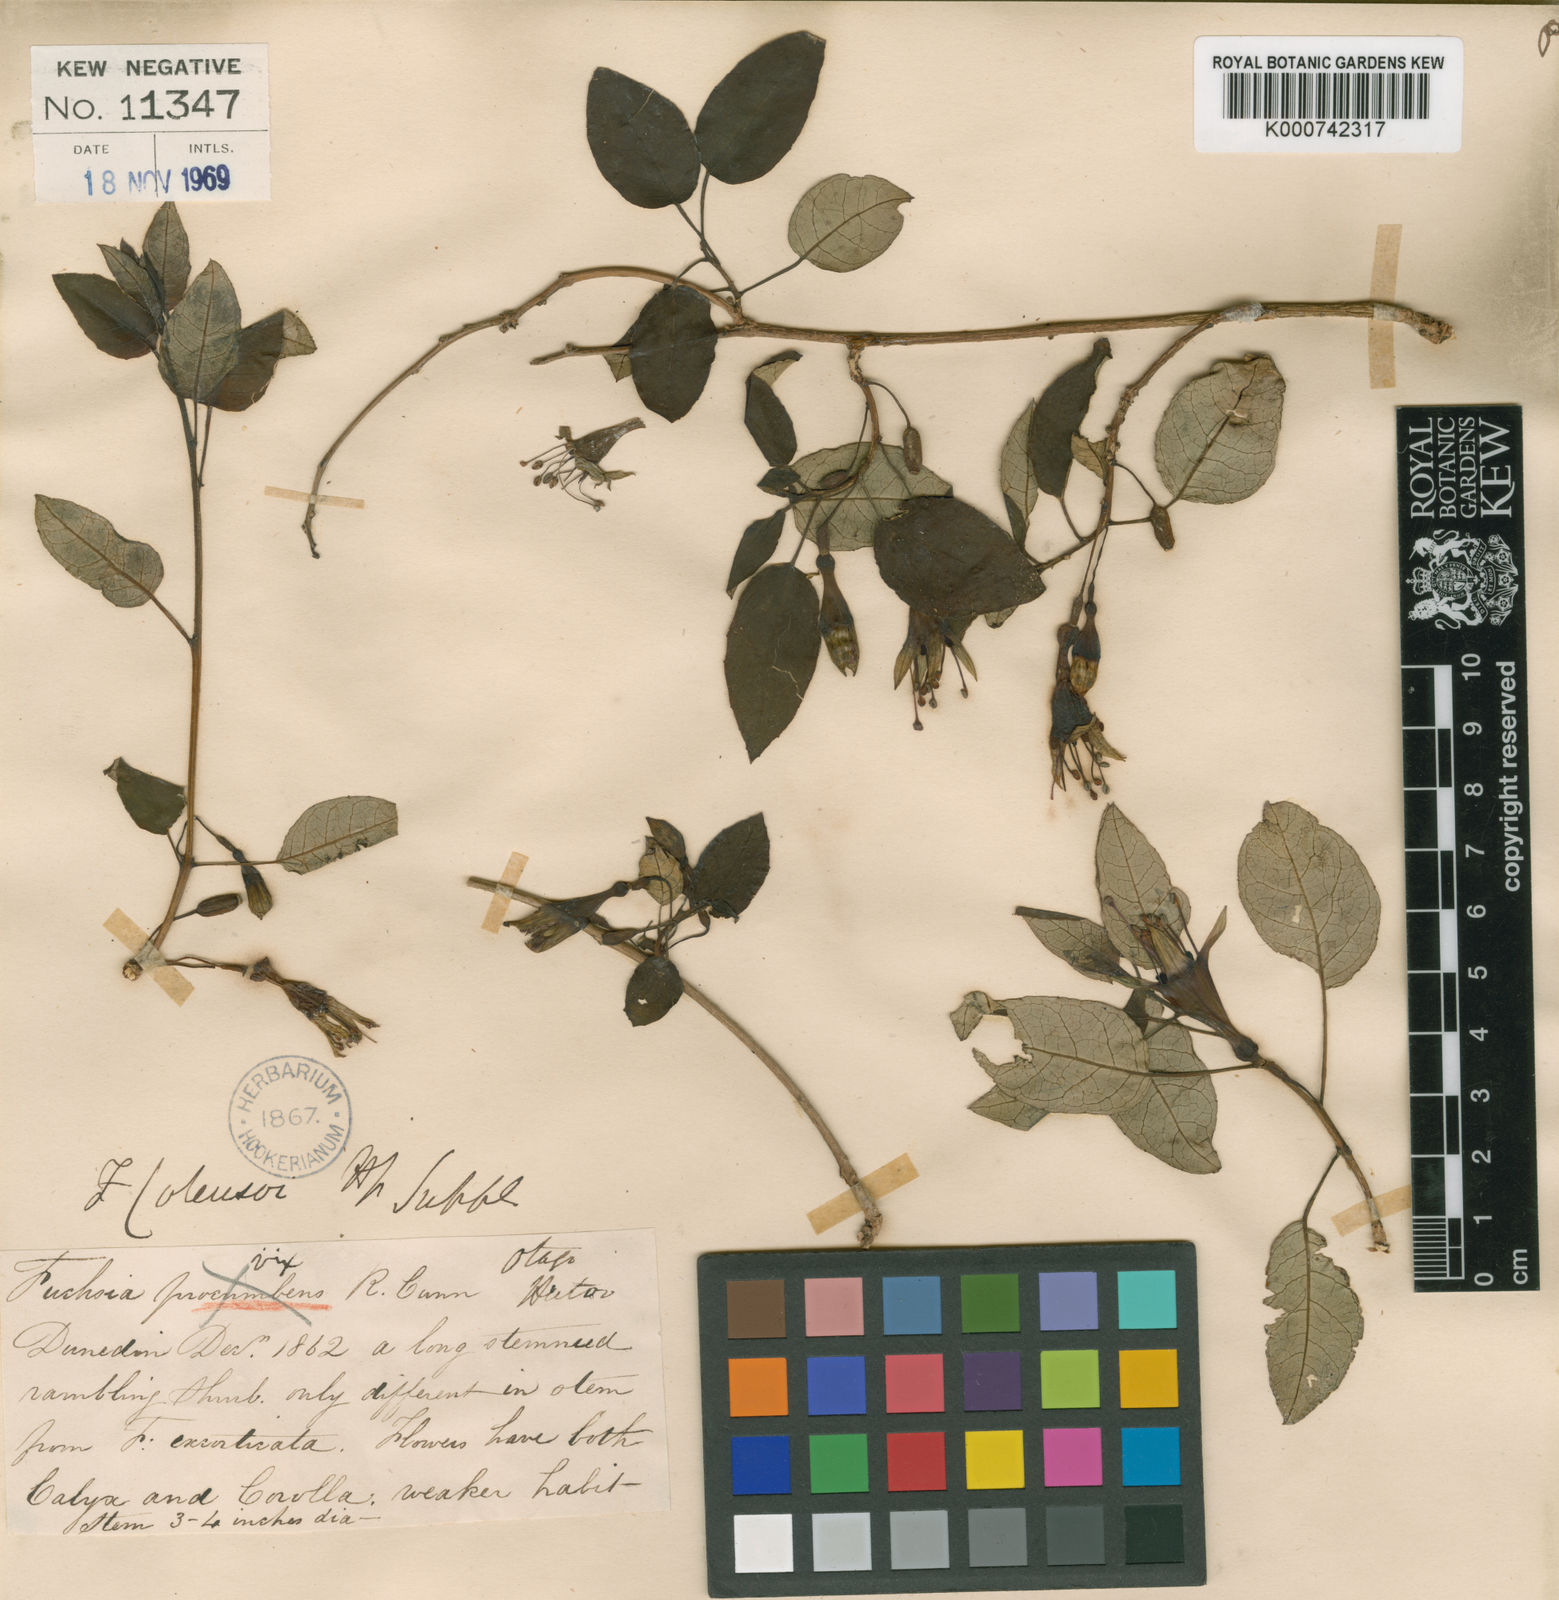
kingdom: Plantae
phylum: Tracheophyta
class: Magnoliopsida
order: Myrtales
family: Onagraceae
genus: Fuchsia
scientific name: Fuchsia colensoi
